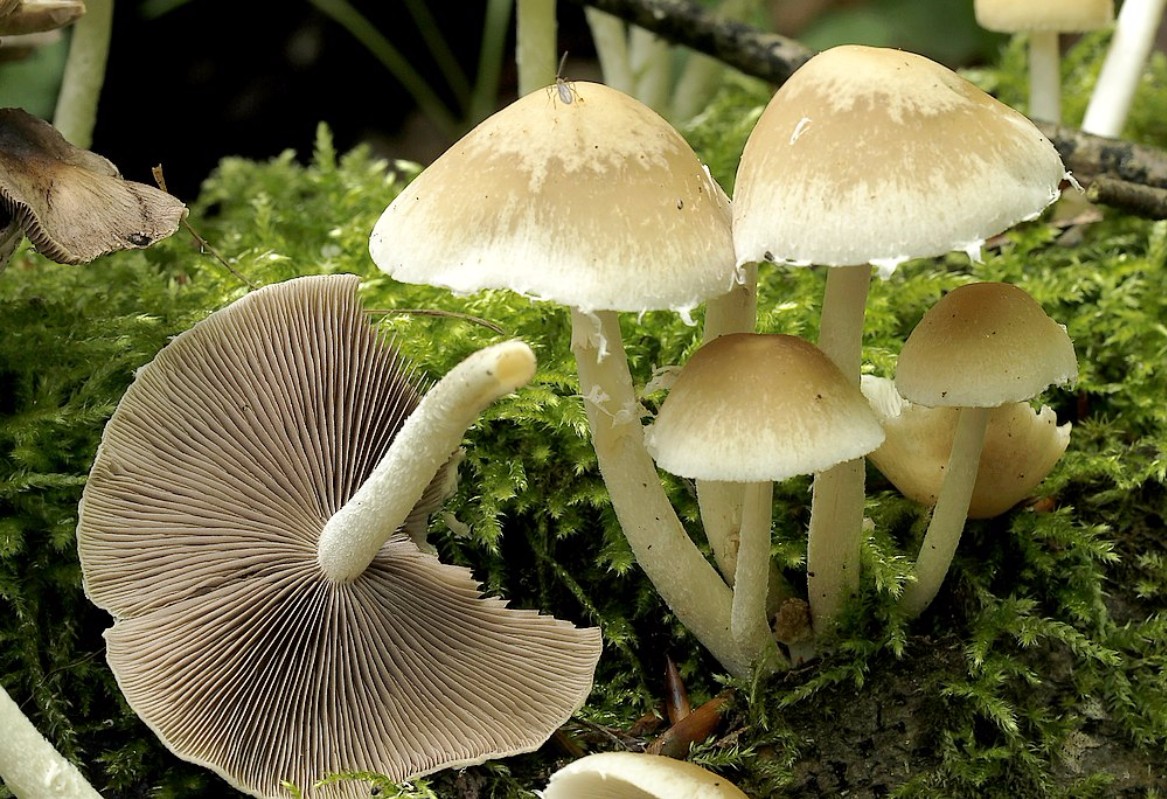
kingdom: Fungi
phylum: Basidiomycota
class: Agaricomycetes
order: Agaricales
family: Psathyrellaceae
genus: Candolleomyces
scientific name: Candolleomyces candolleanus
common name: Candolles mørkhat
